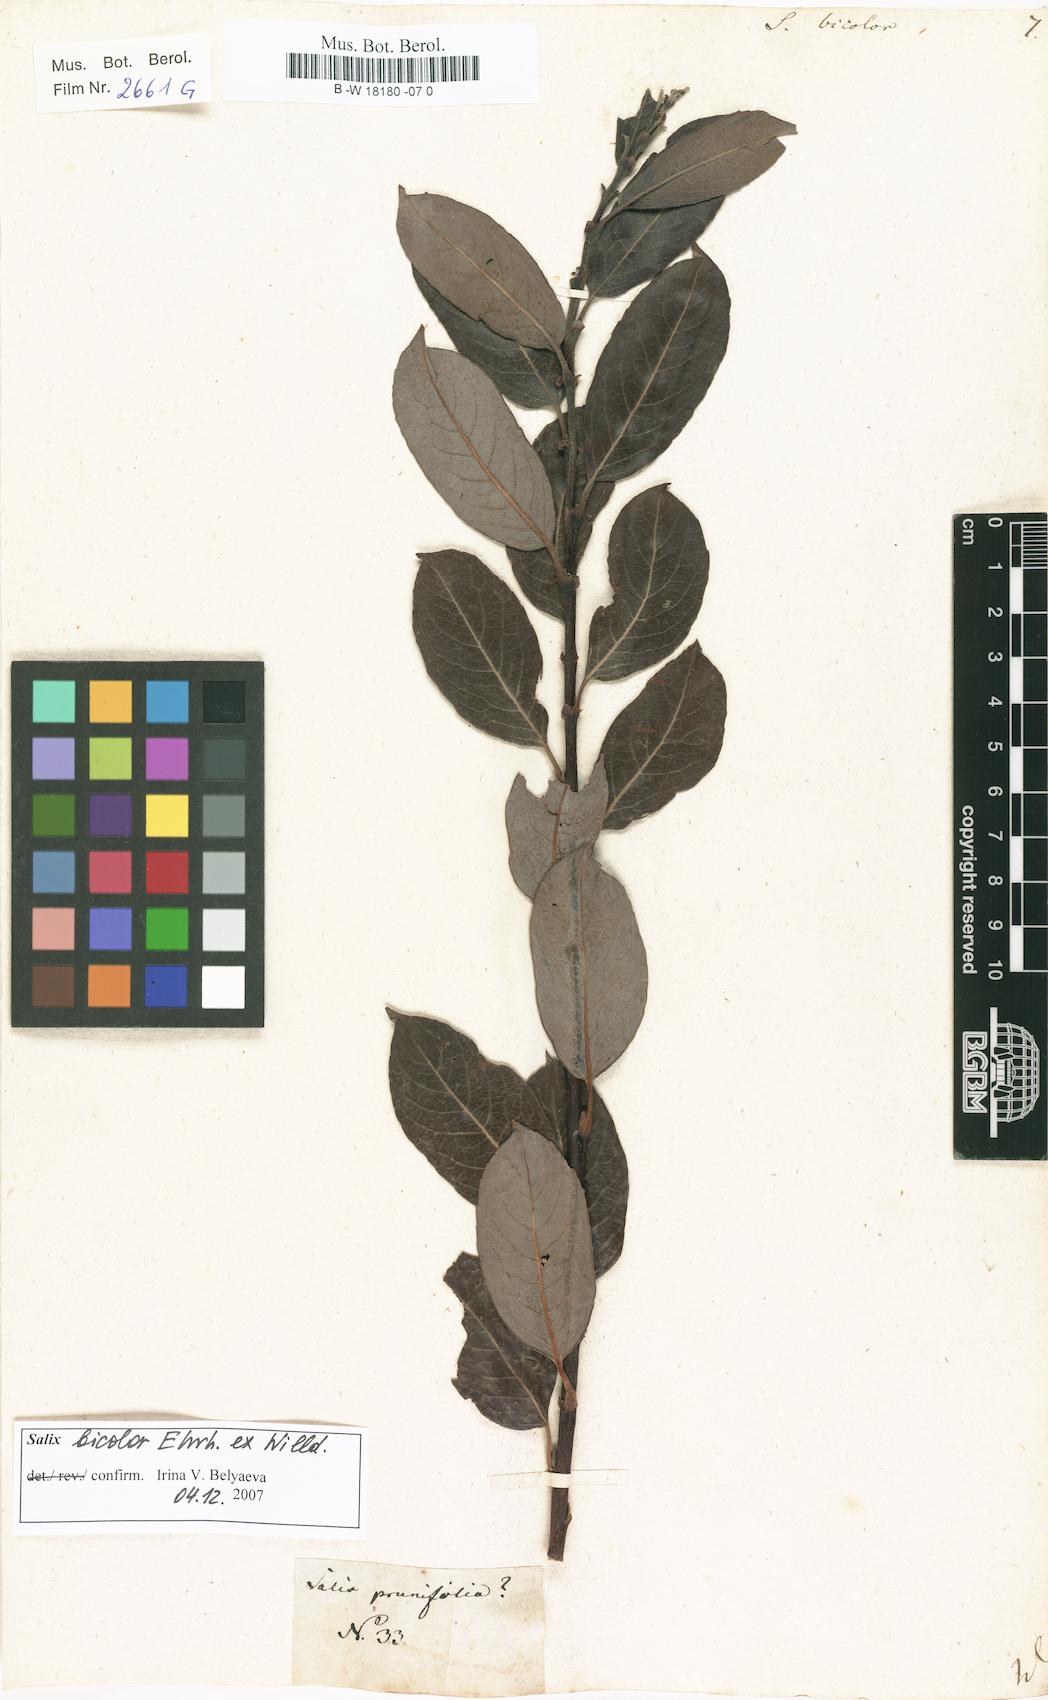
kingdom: Plantae
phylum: Tracheophyta
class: Magnoliopsida
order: Malpighiales
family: Salicaceae
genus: Salix
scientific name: Salix bicolor
